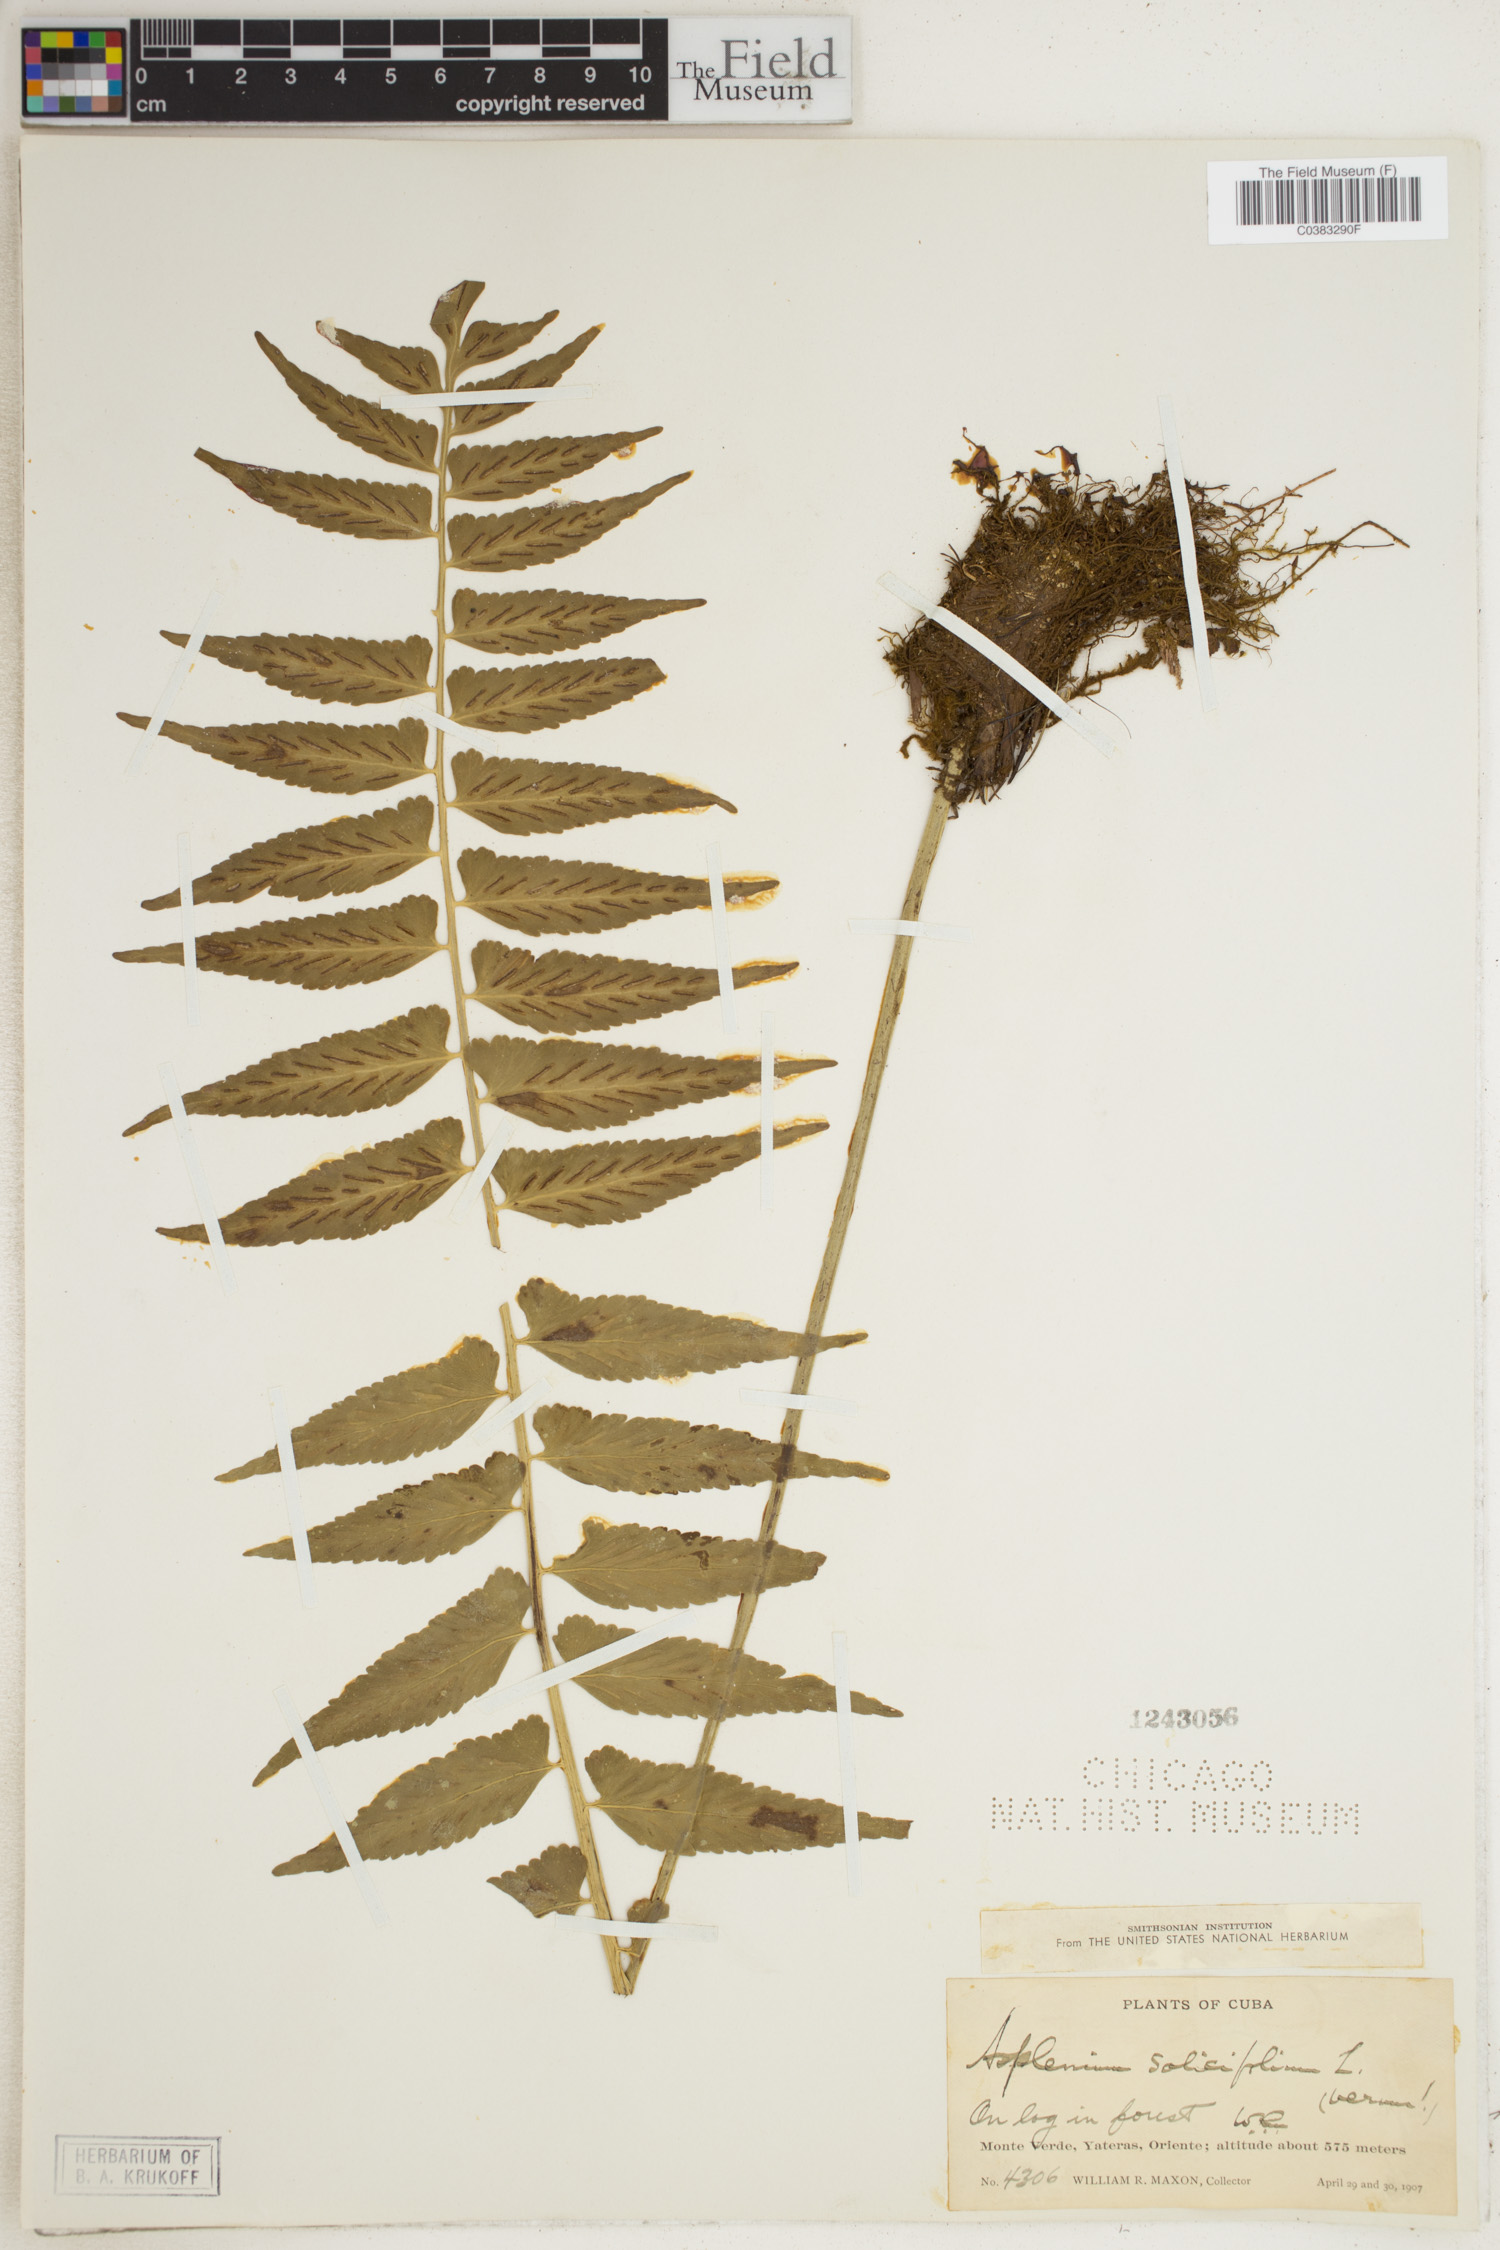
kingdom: Plantae
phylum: Tracheophyta
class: Polypodiopsida
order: Polypodiales
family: Aspleniaceae
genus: Asplenium
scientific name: Asplenium salicifolium
